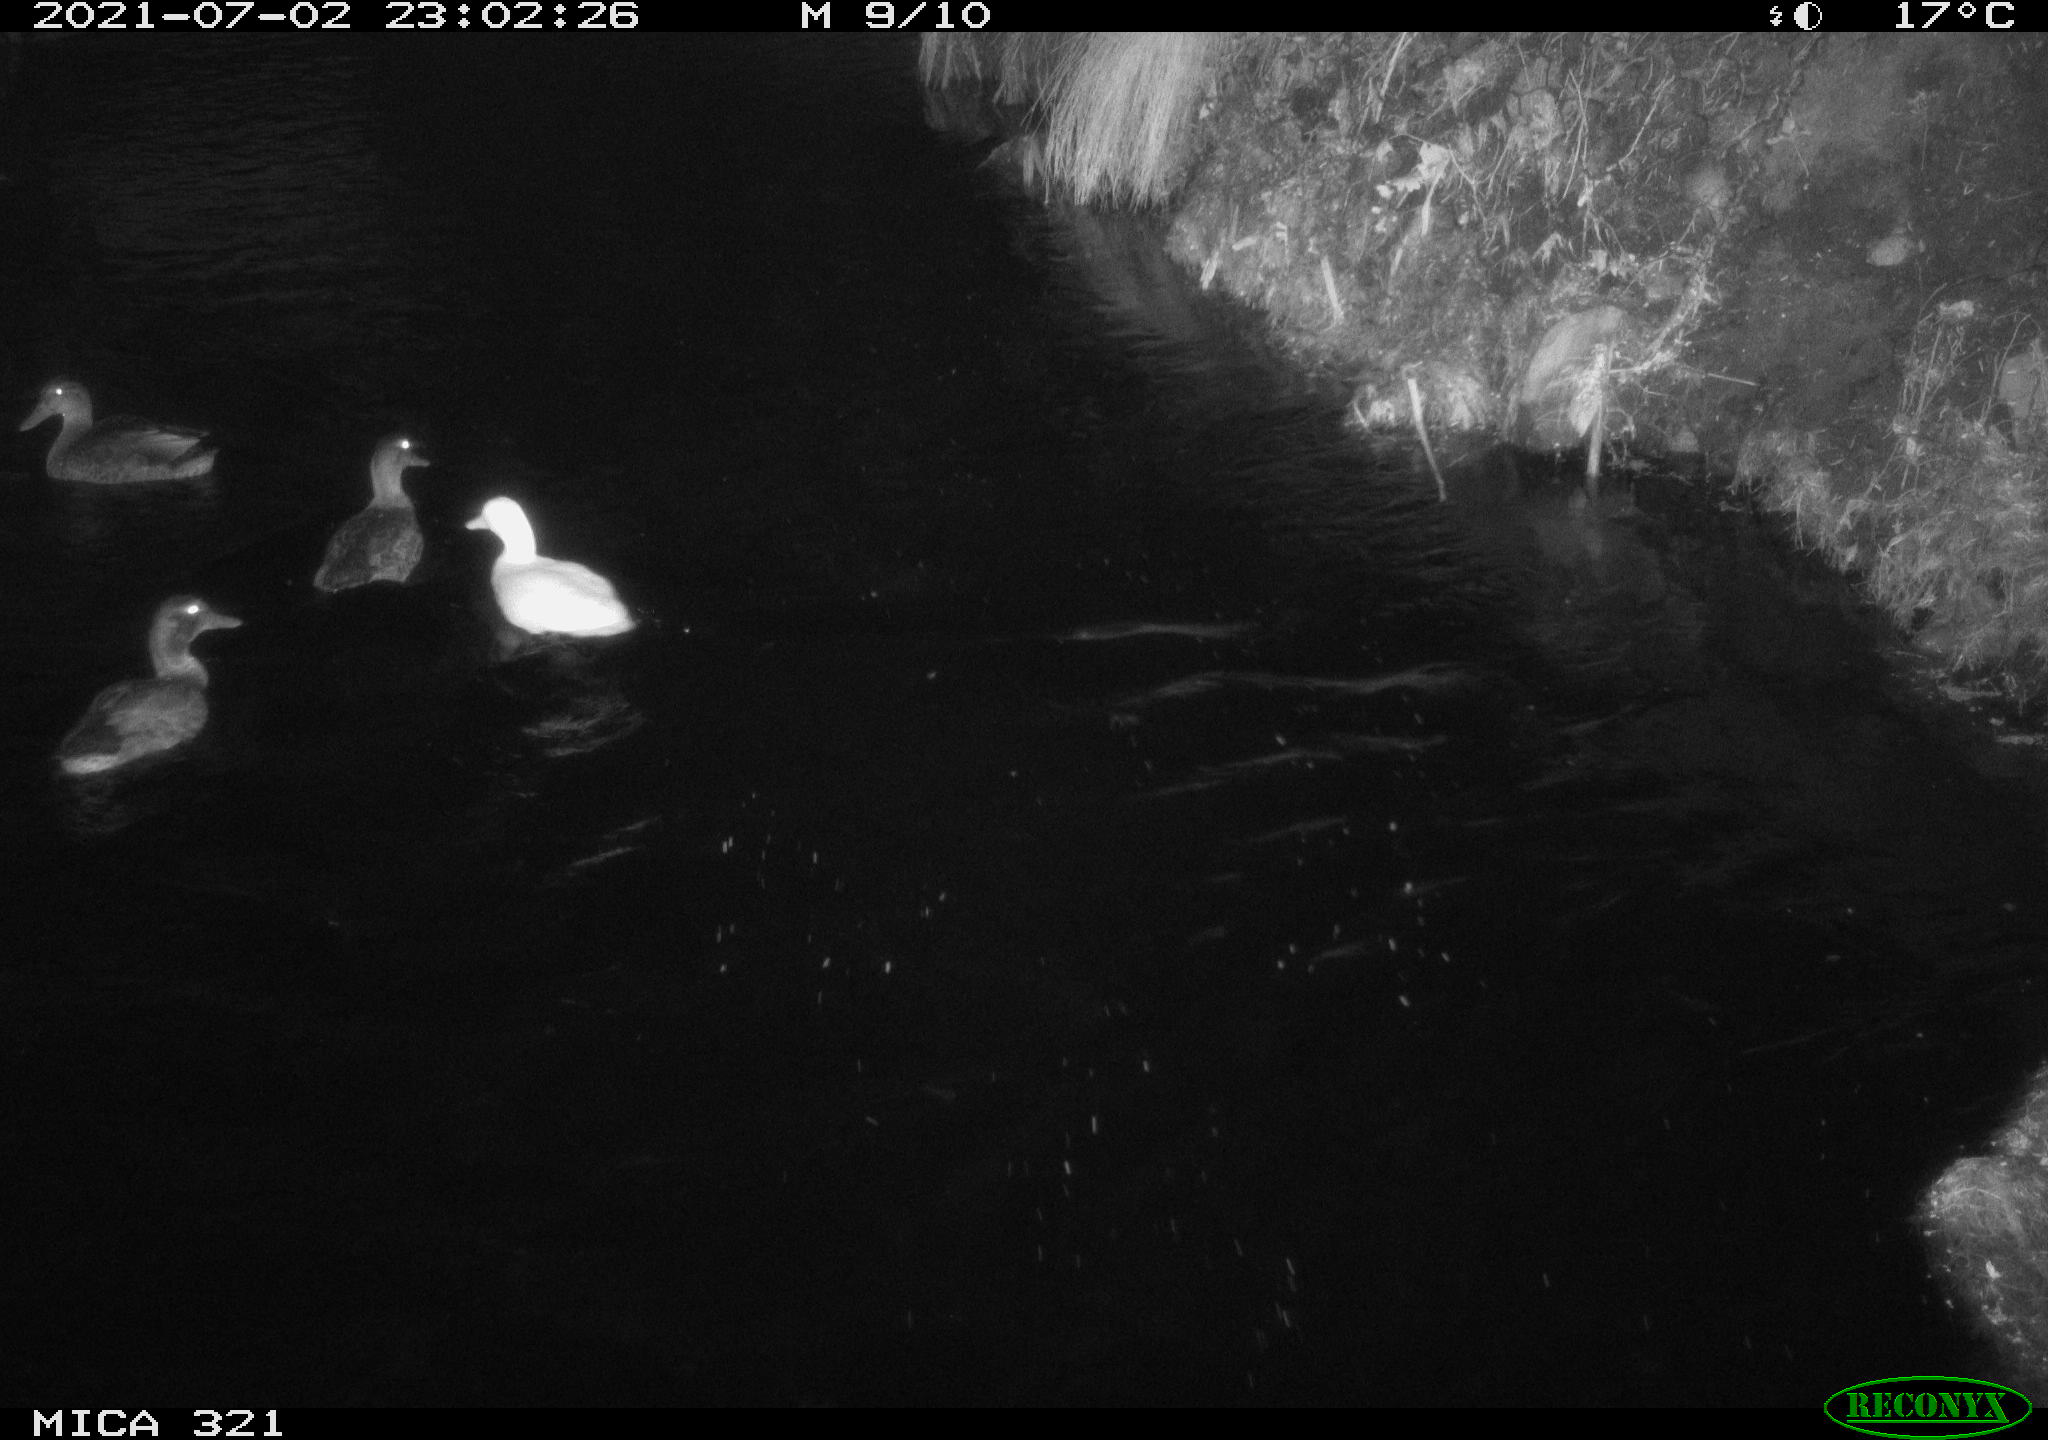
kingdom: Animalia
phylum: Chordata
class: Aves
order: Anseriformes
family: Anatidae
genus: Anas
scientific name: Anas platyrhynchos
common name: Mallard
